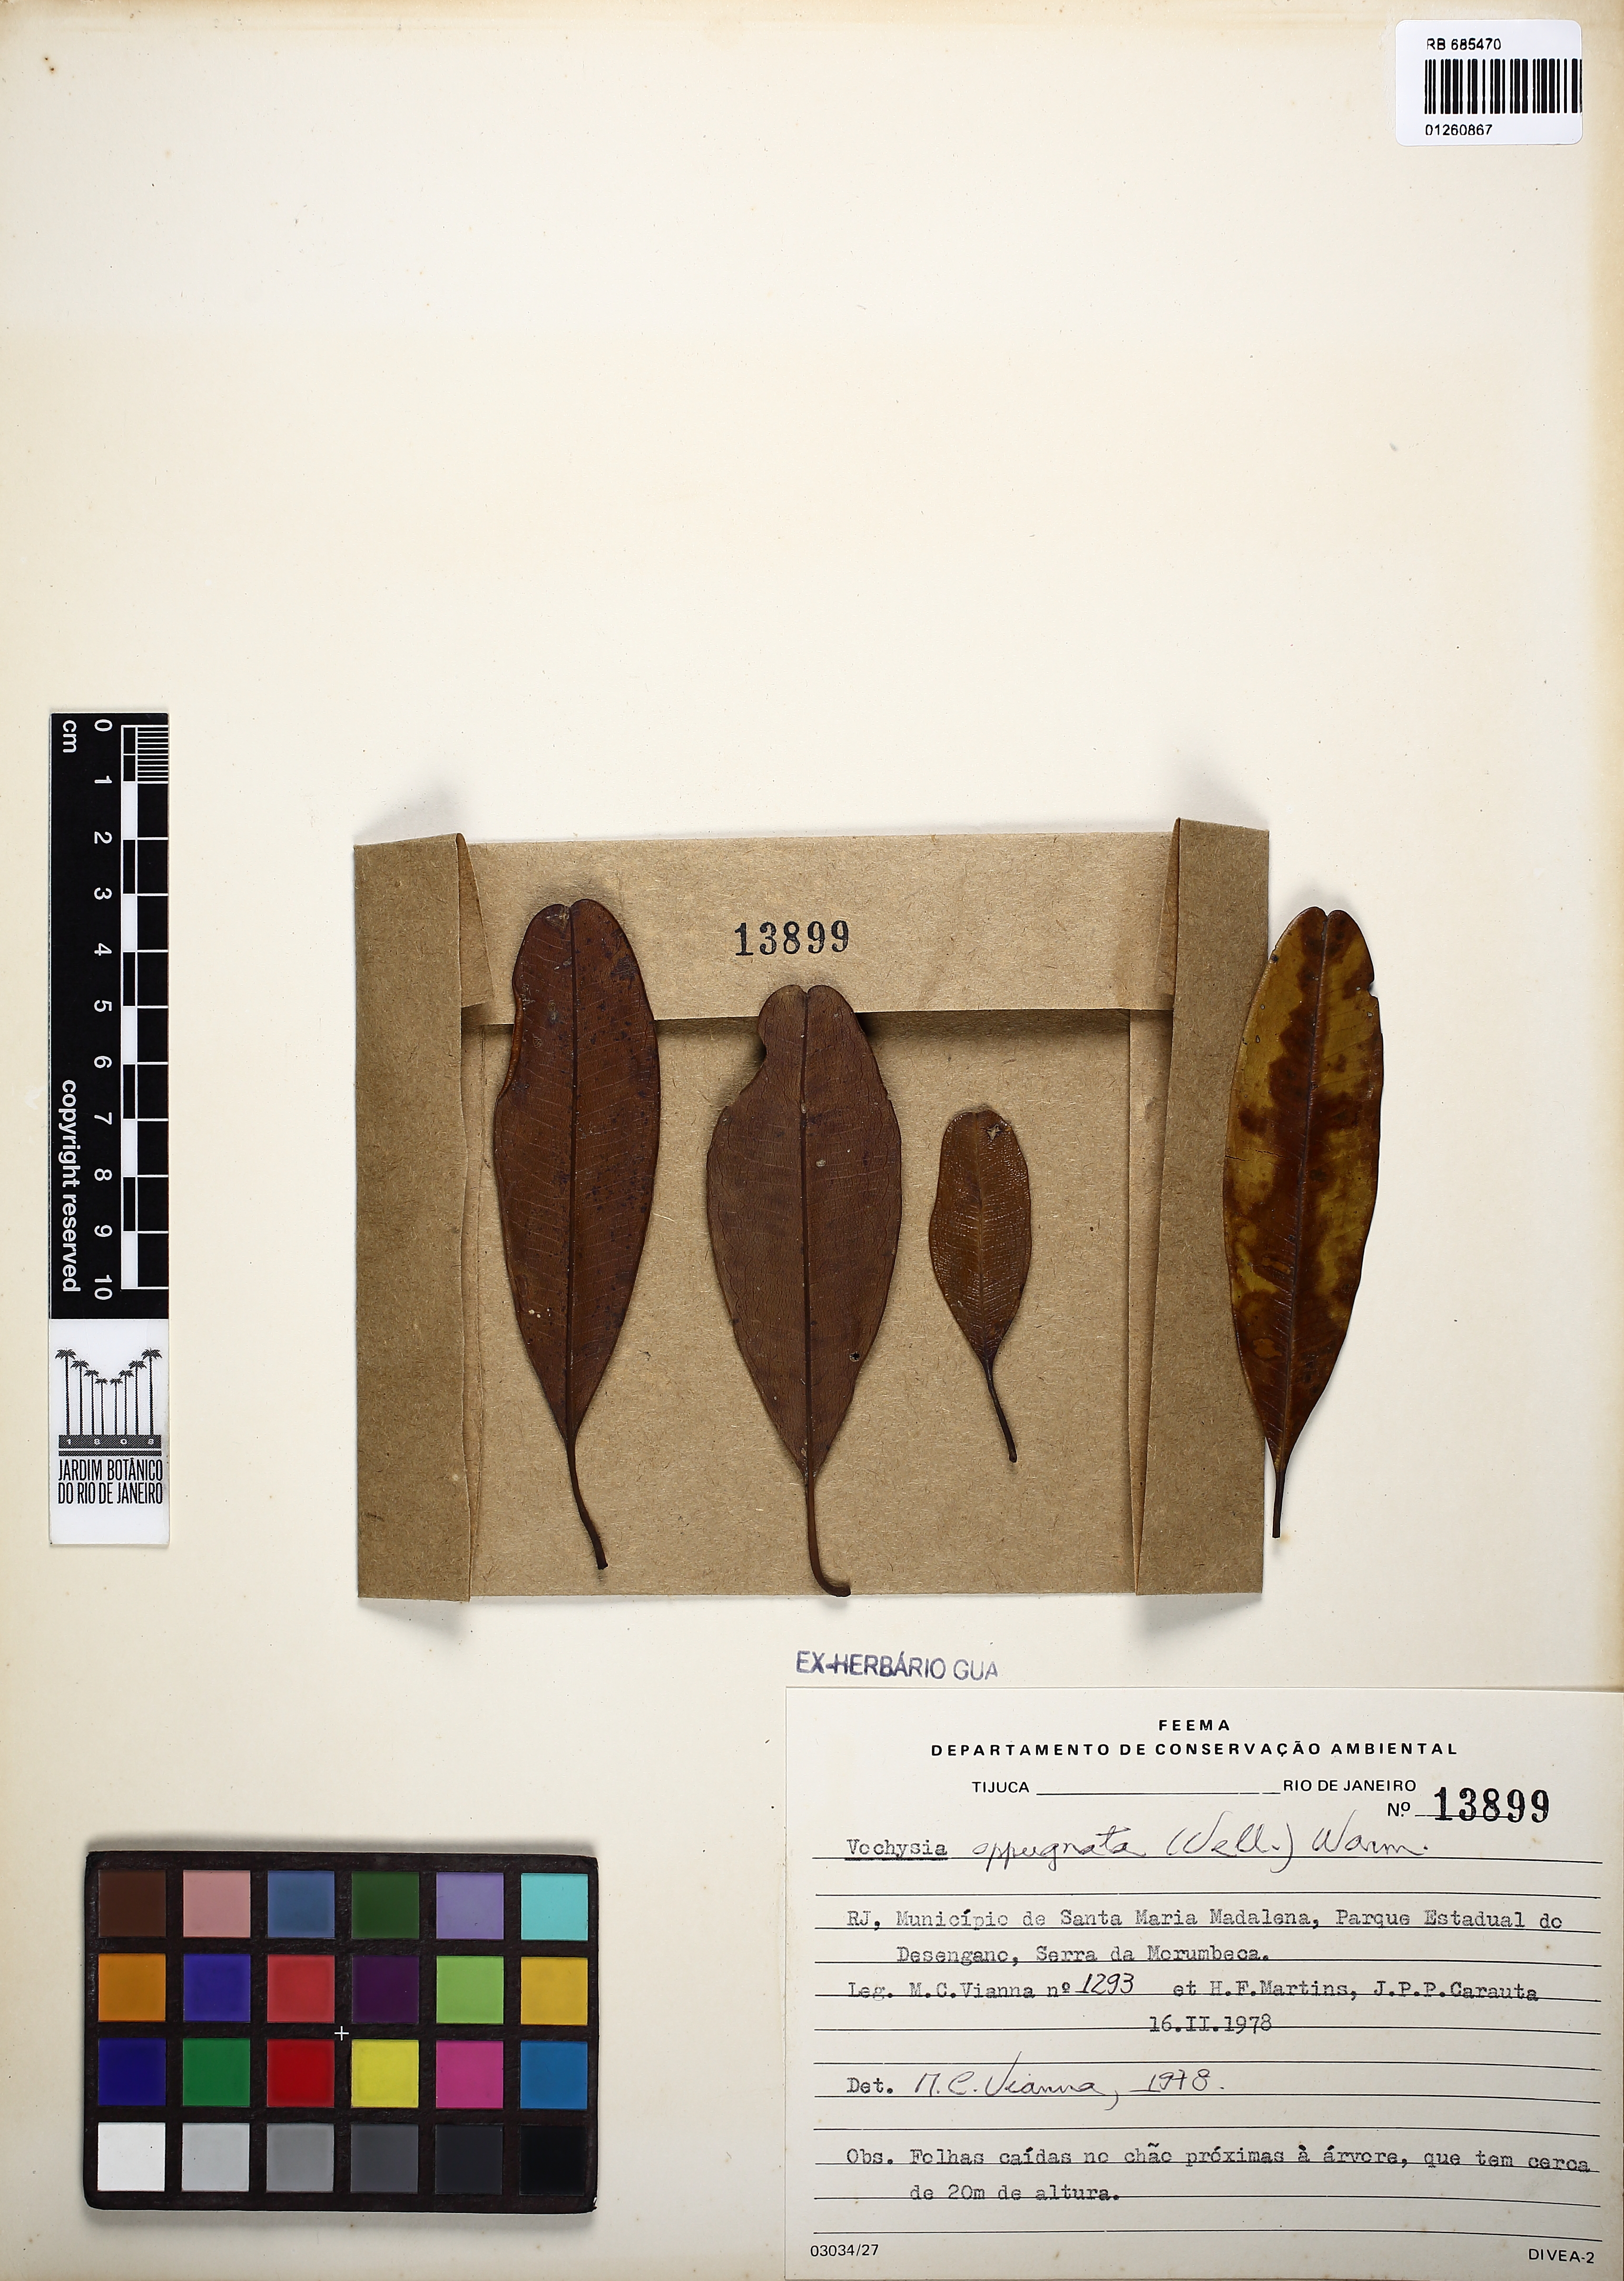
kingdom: Plantae
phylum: Tracheophyta
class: Magnoliopsida
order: Myrtales
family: Vochysiaceae
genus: Vochysia
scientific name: Vochysia oppugnata
